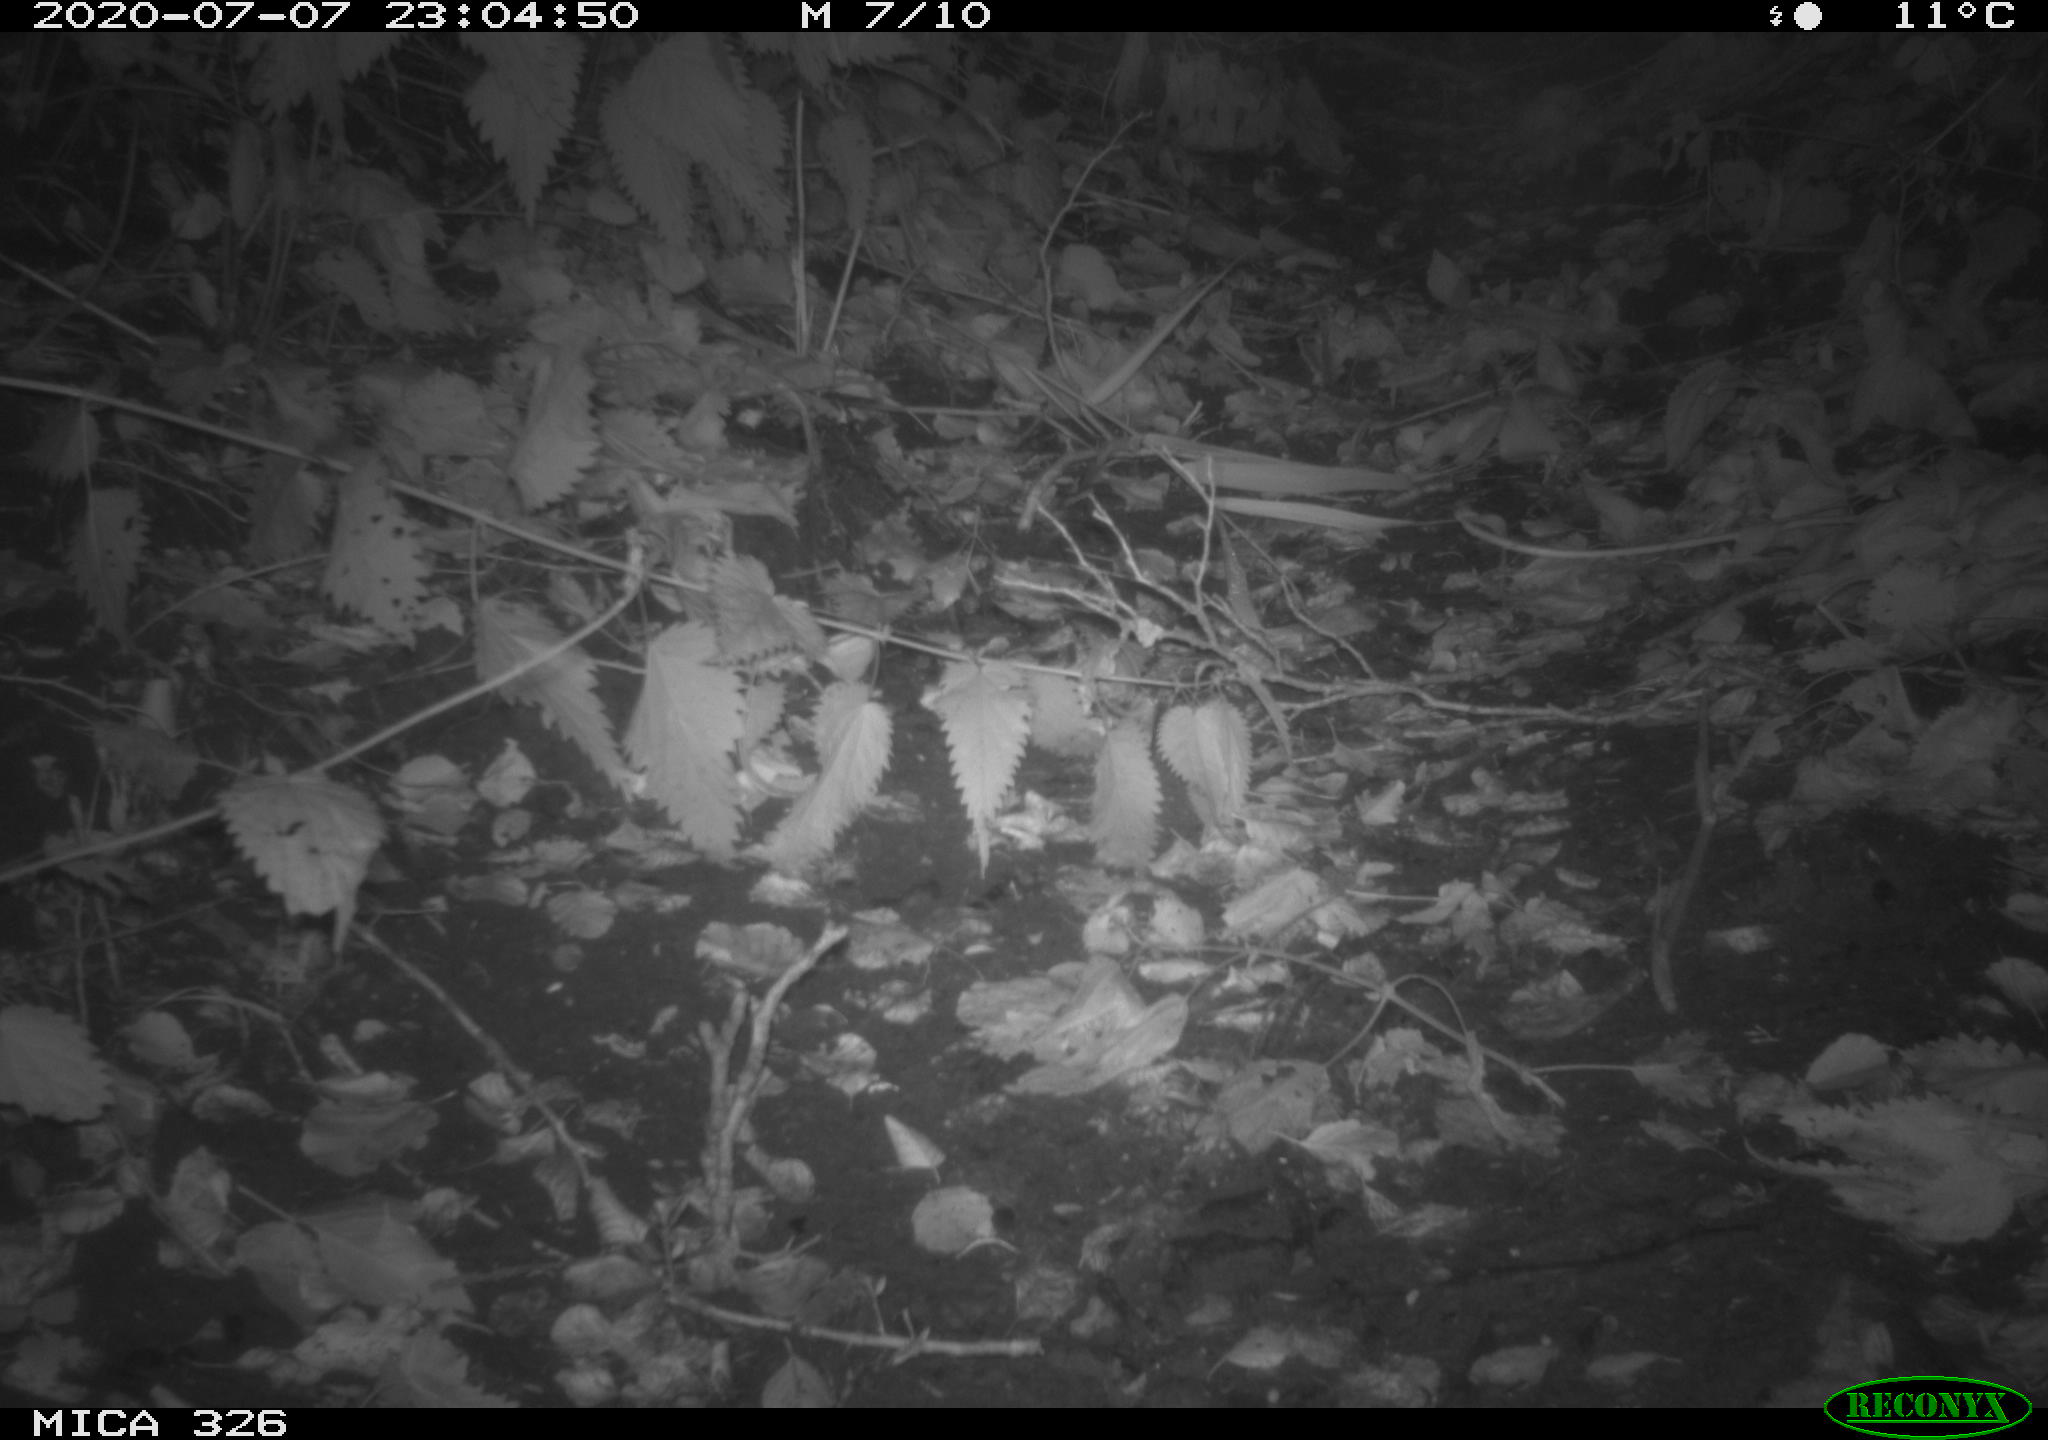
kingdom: Animalia
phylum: Chordata
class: Mammalia
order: Rodentia
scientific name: Rodentia
